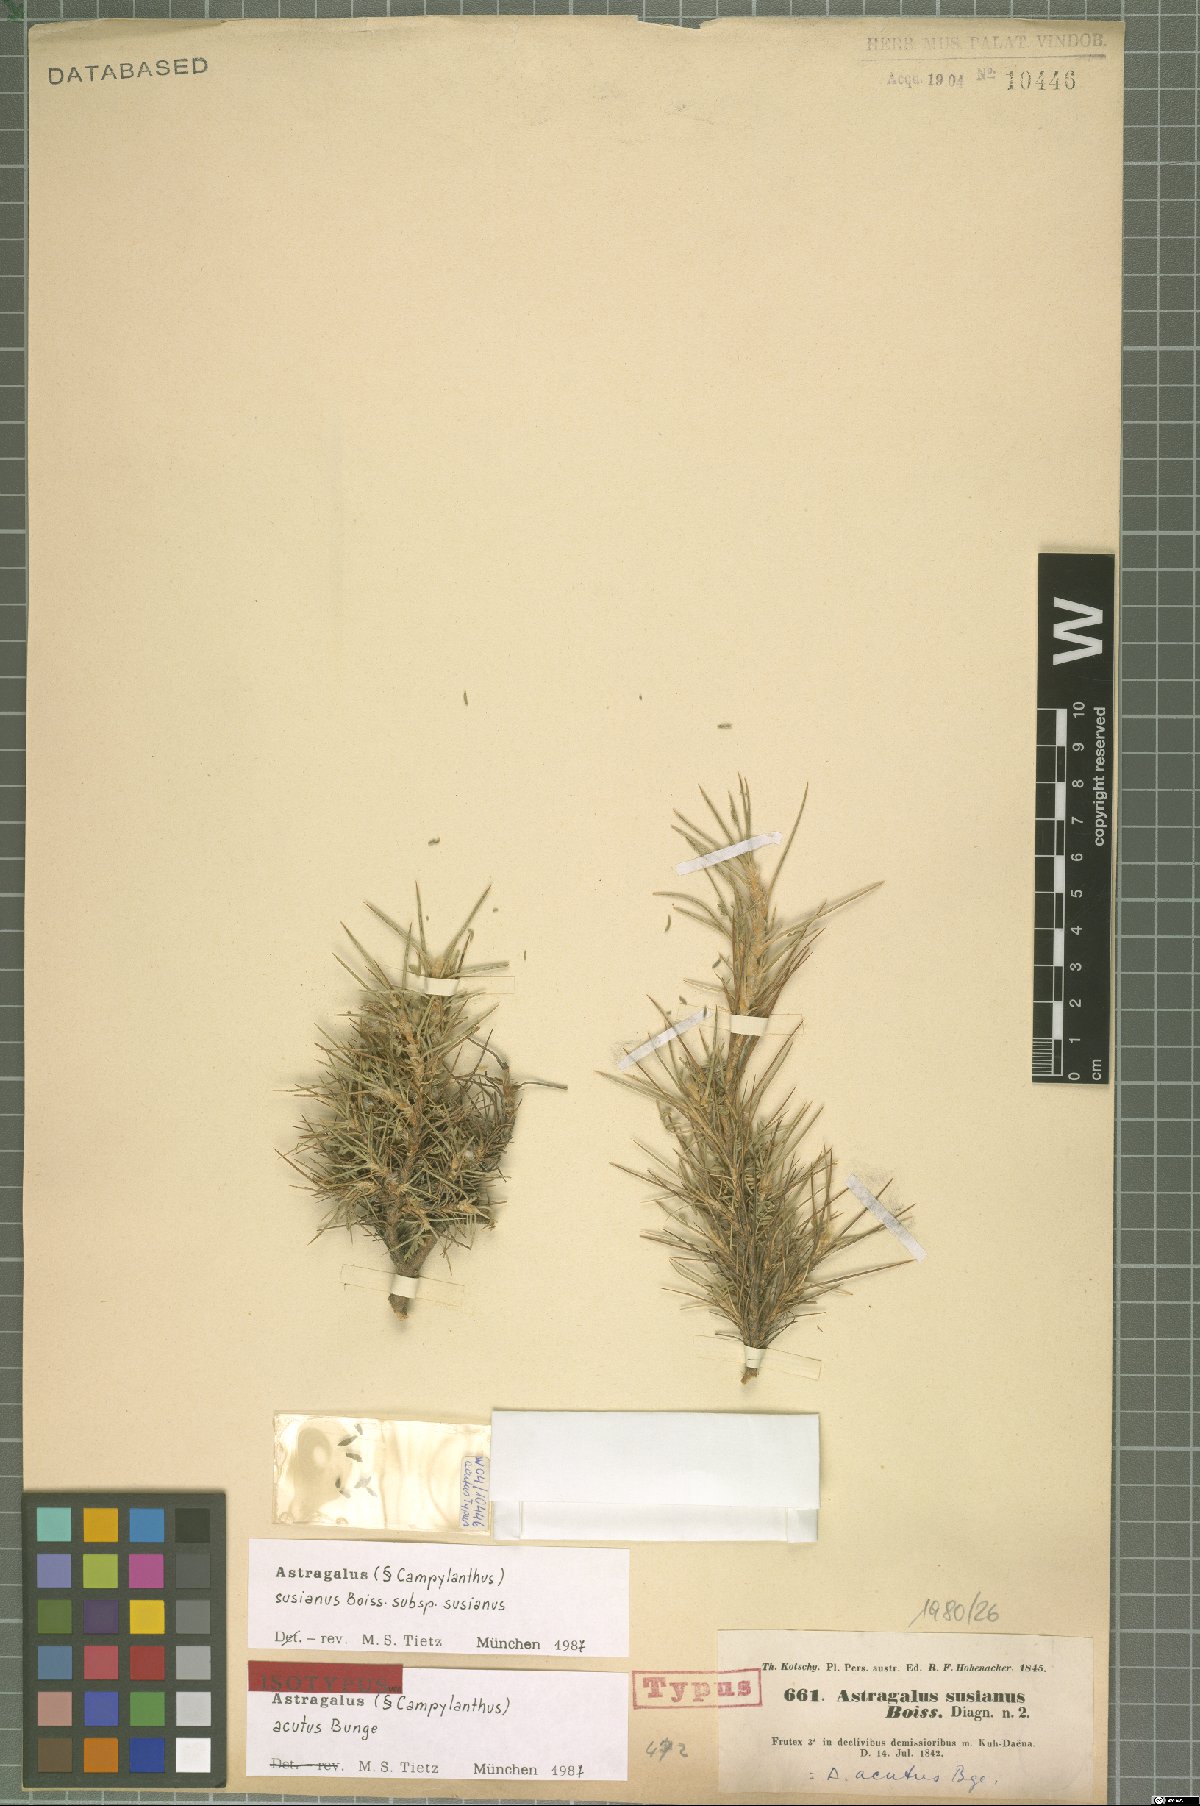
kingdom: Plantae
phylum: Tracheophyta
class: Magnoliopsida
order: Fabales
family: Fabaceae
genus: Astragalus
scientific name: Astragalus susianus
